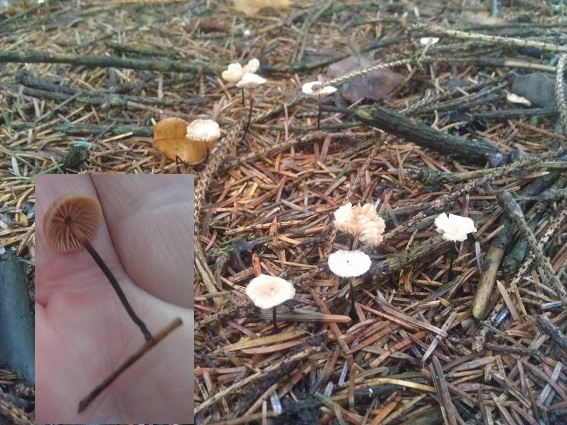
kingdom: Fungi
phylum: Basidiomycota
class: Agaricomycetes
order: Agaricales
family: Omphalotaceae
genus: Paragymnopus
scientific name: Paragymnopus perforans
